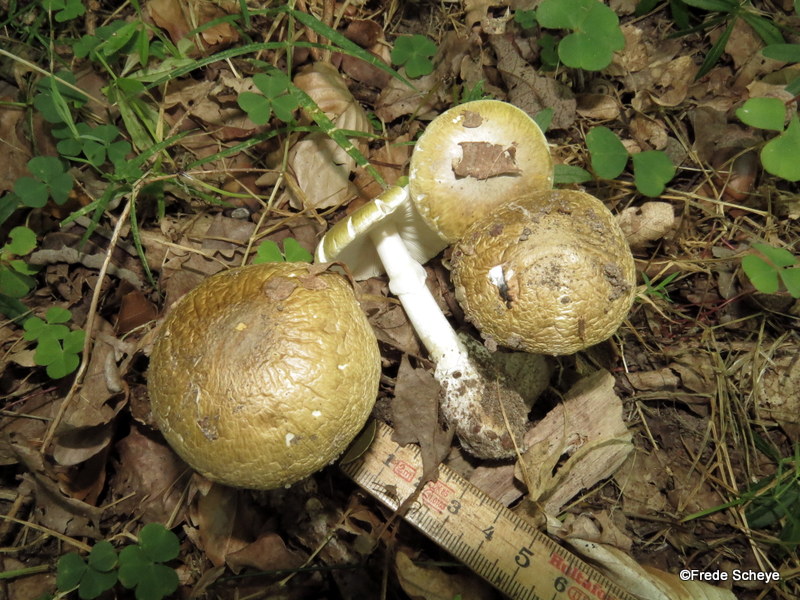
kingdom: Fungi
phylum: Basidiomycota
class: Agaricomycetes
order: Agaricales
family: Amanitaceae
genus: Amanita
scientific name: Amanita phalloides
